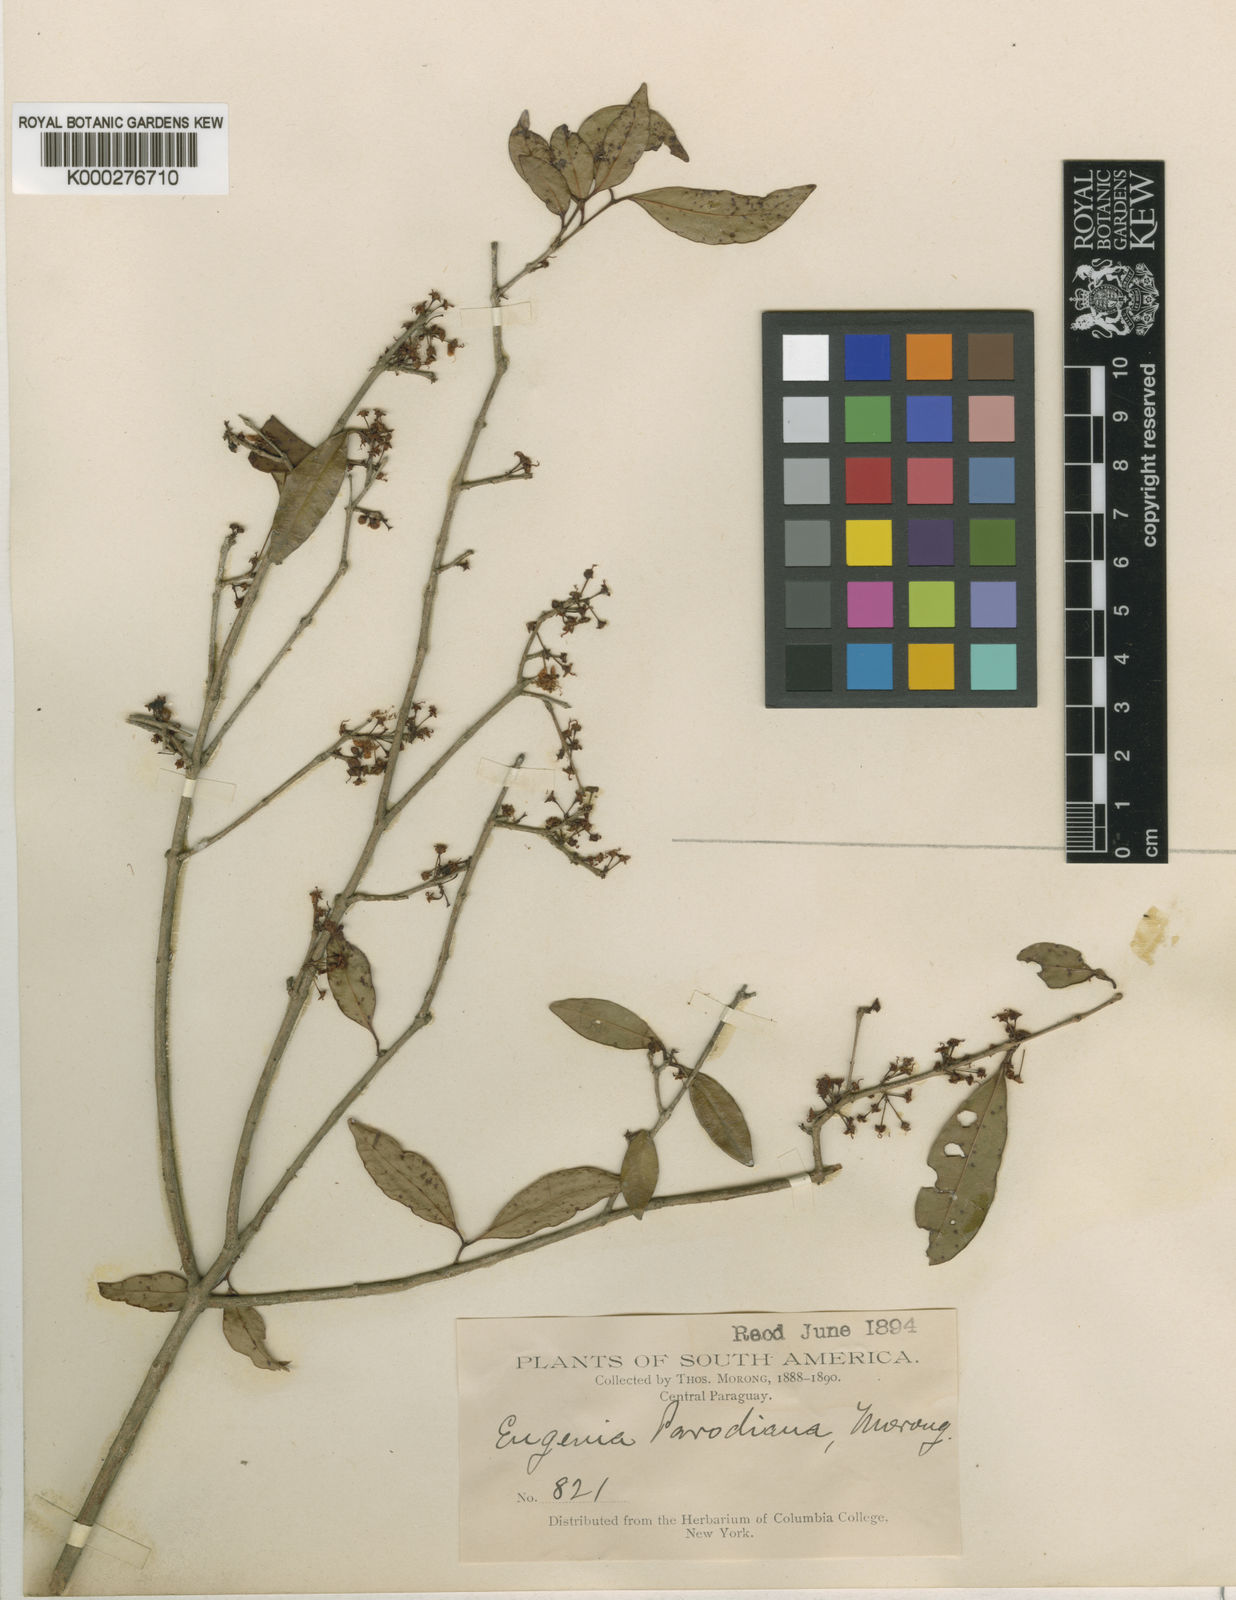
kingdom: Plantae
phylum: Tracheophyta
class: Magnoliopsida
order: Myrtales
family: Myrtaceae
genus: Eugenia
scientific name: Eugenia egensis
